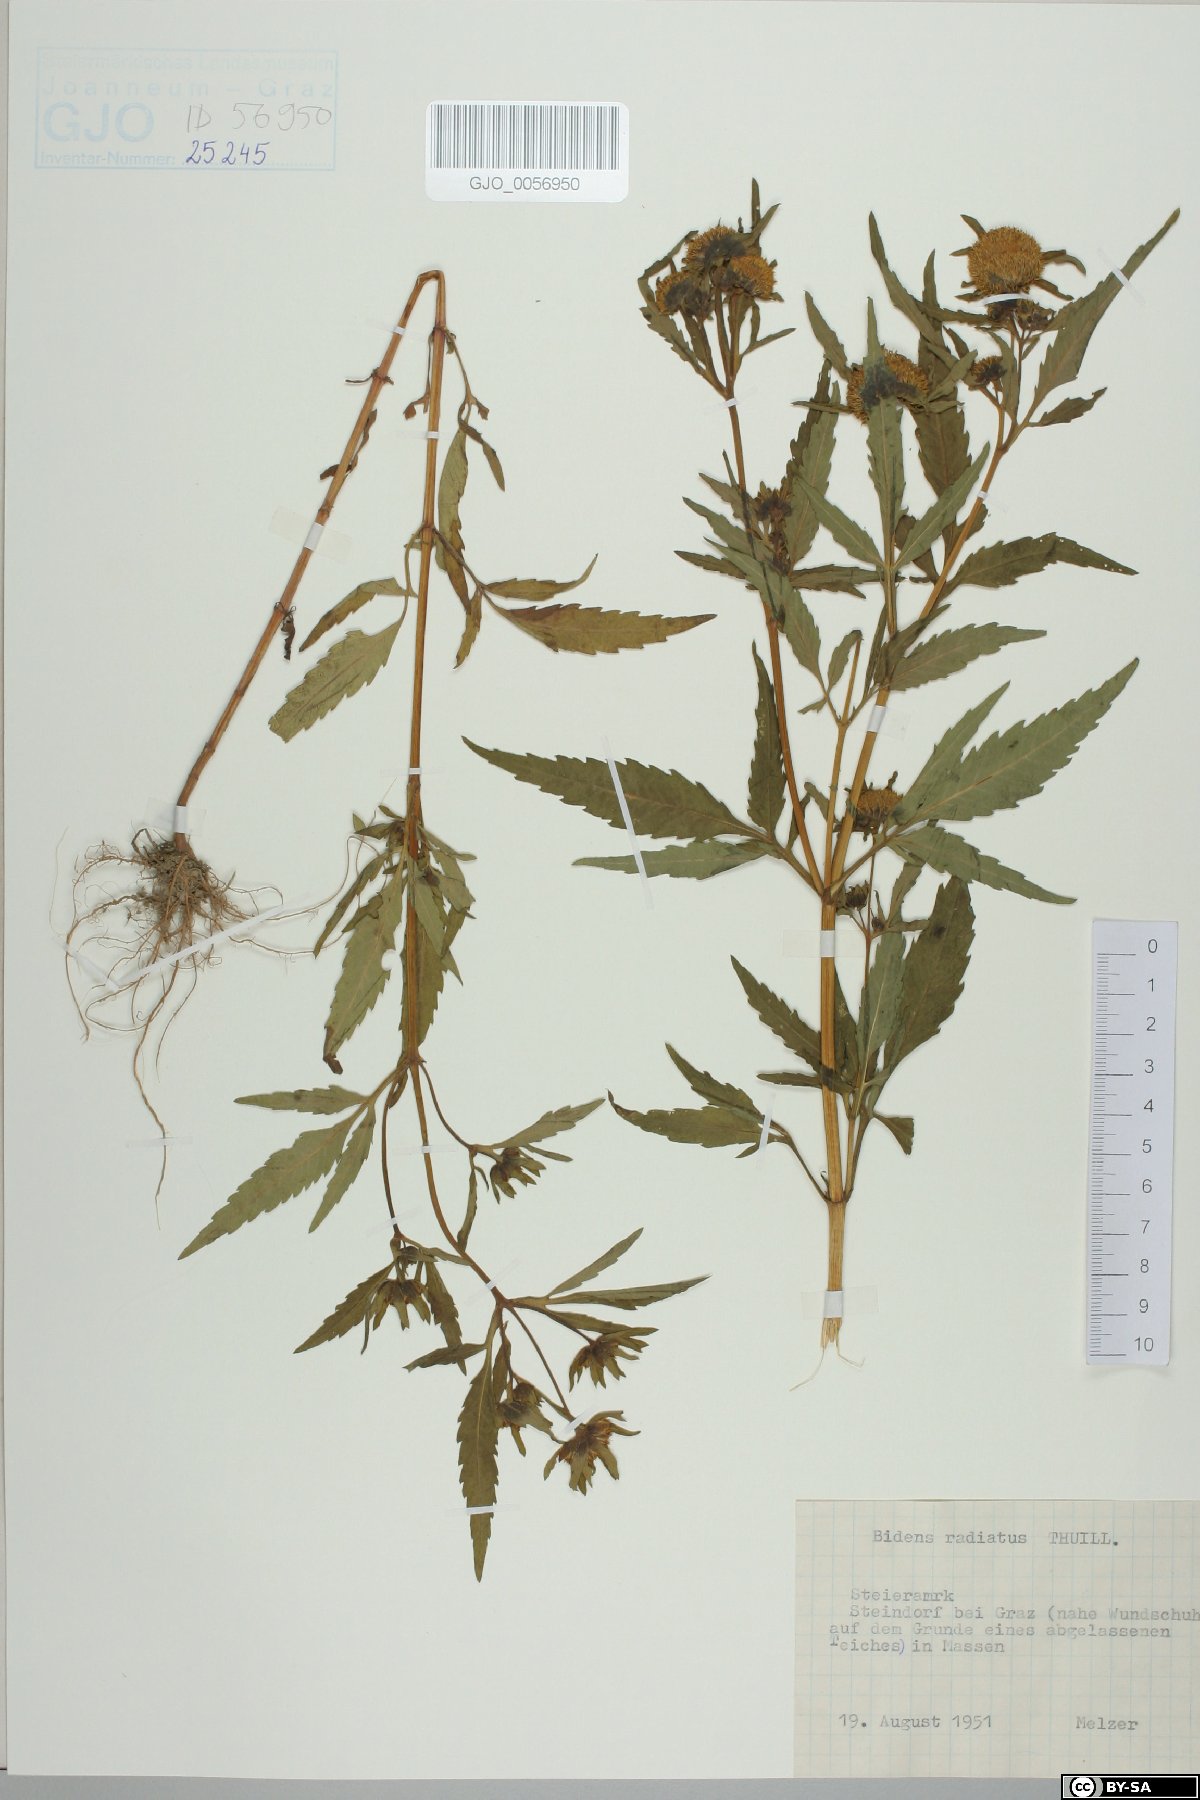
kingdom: Plantae
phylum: Tracheophyta
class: Magnoliopsida
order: Asterales
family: Asteraceae
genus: Bidens
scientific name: Bidens radiata
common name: Radiating bur-marigold
